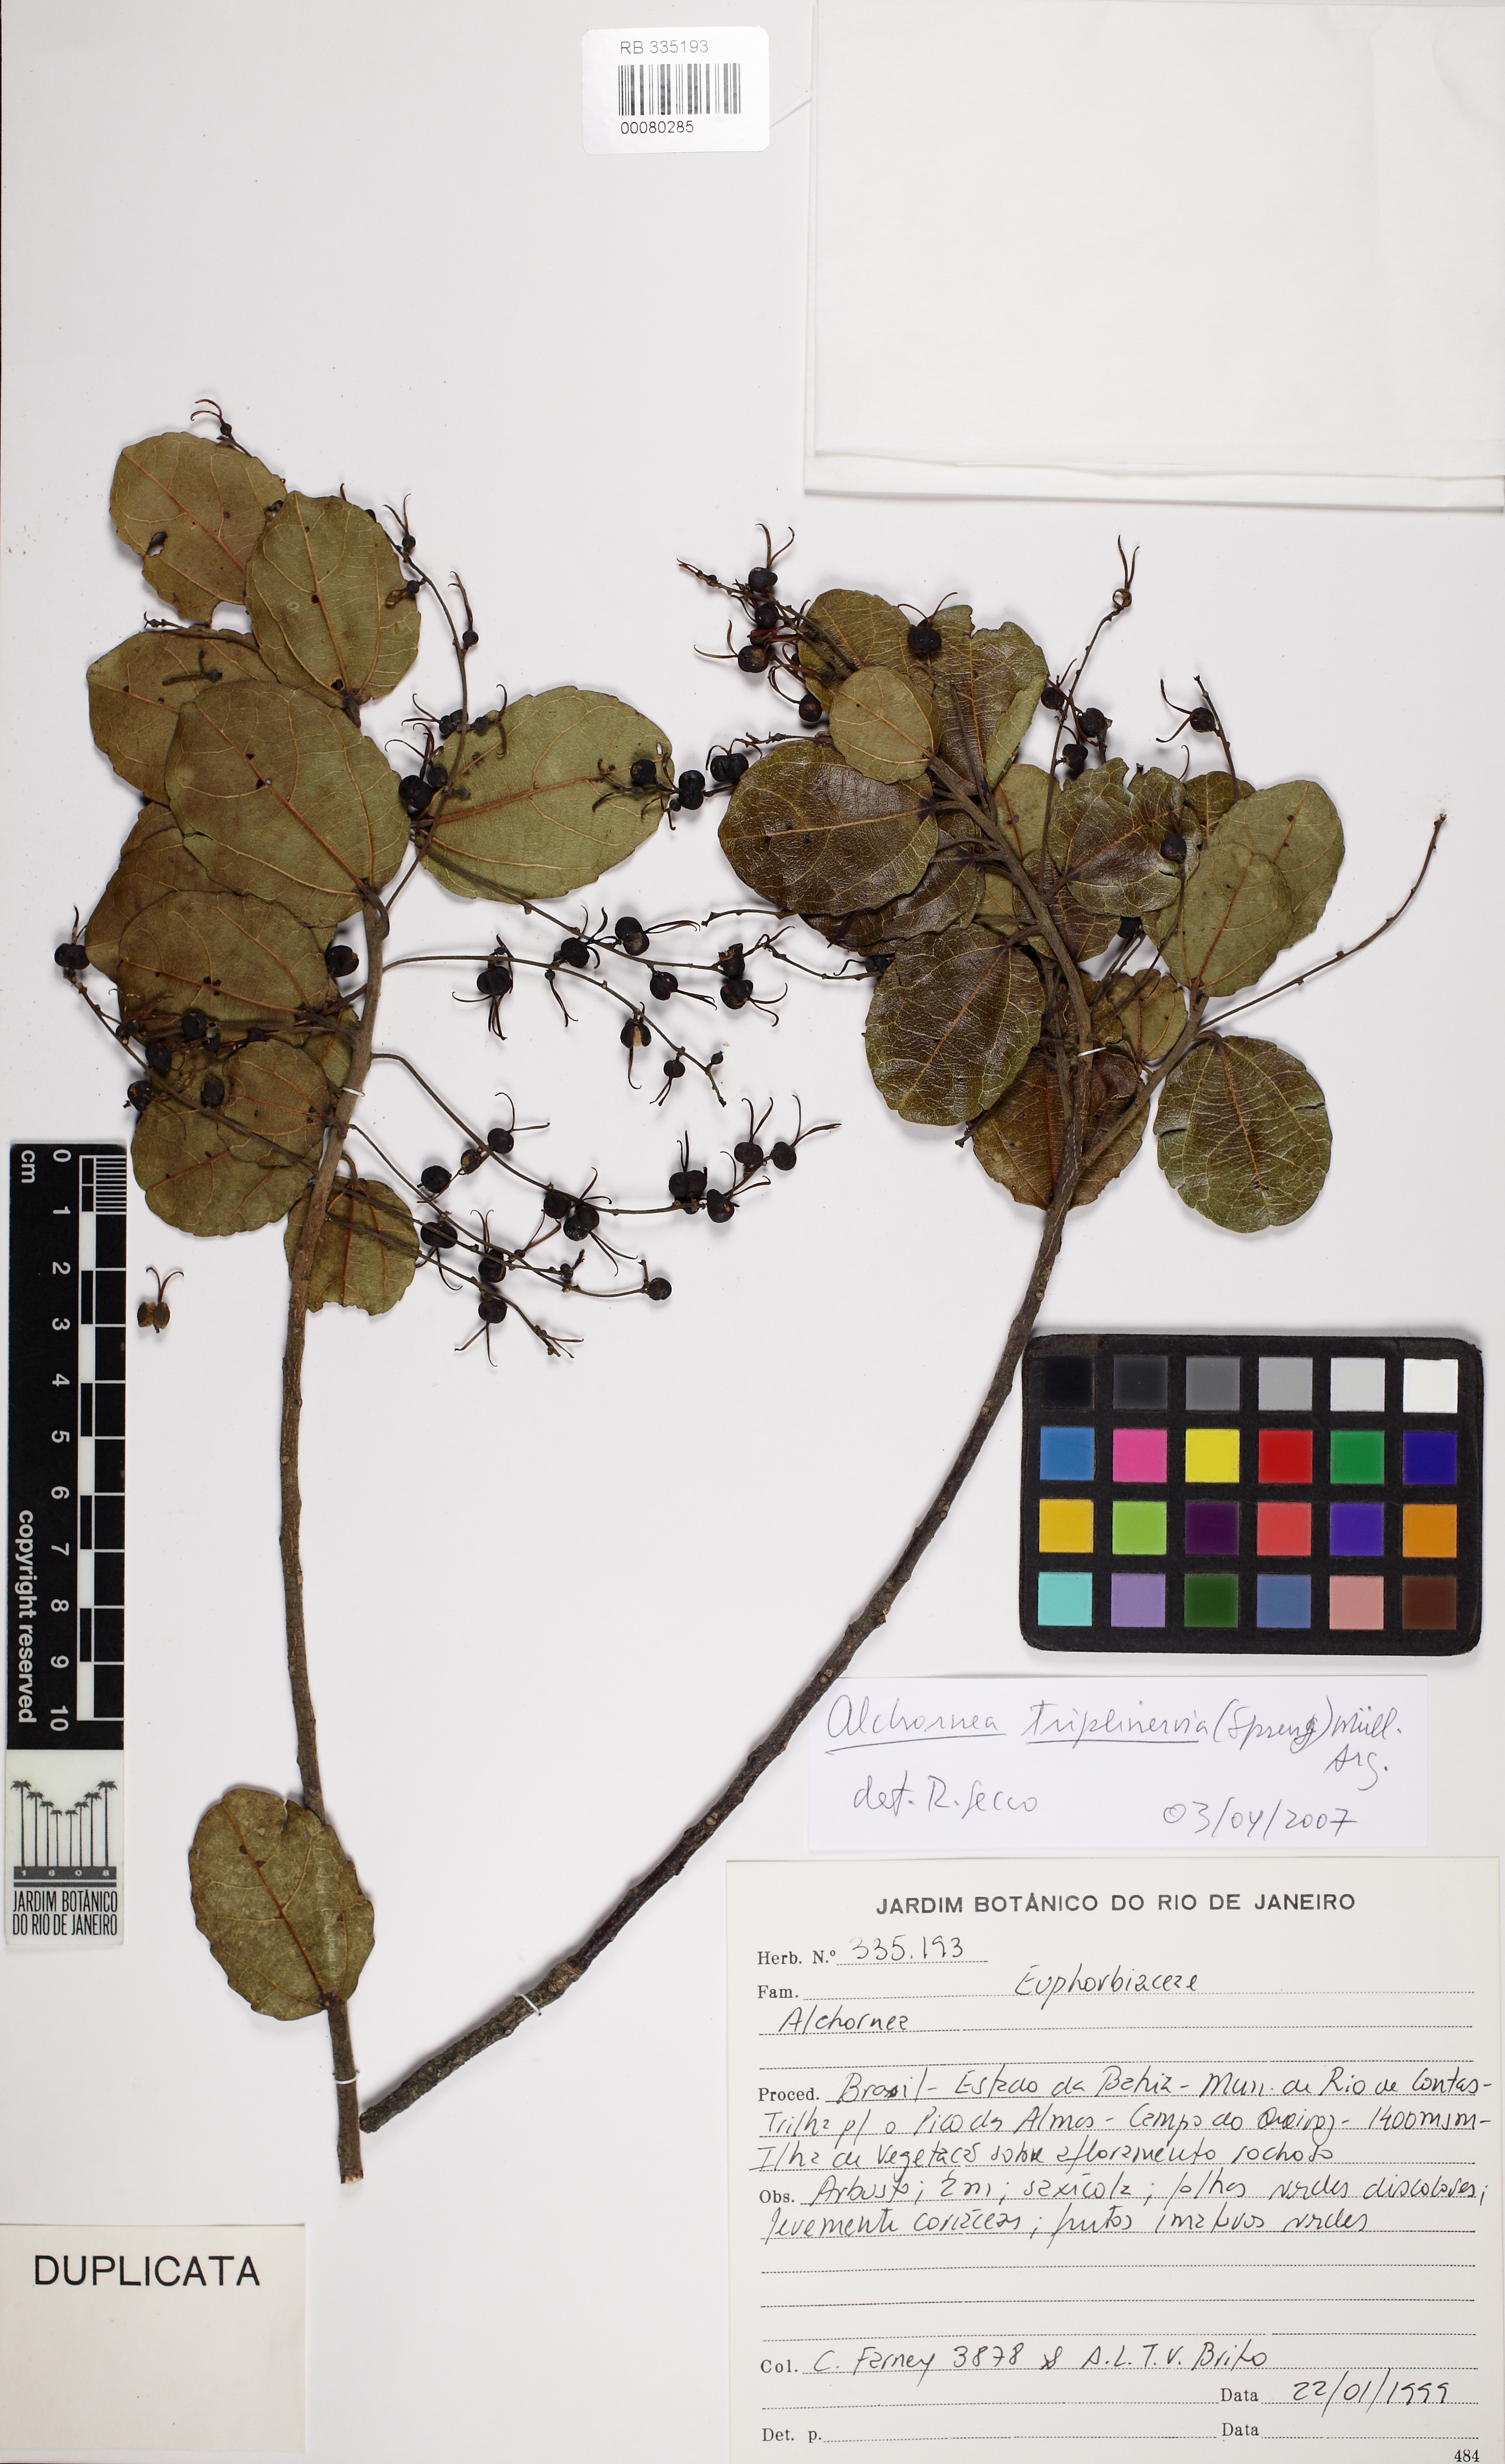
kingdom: Plantae
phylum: Tracheophyta
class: Magnoliopsida
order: Malpighiales
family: Euphorbiaceae
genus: Alchornea
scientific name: Alchornea triplinervia
